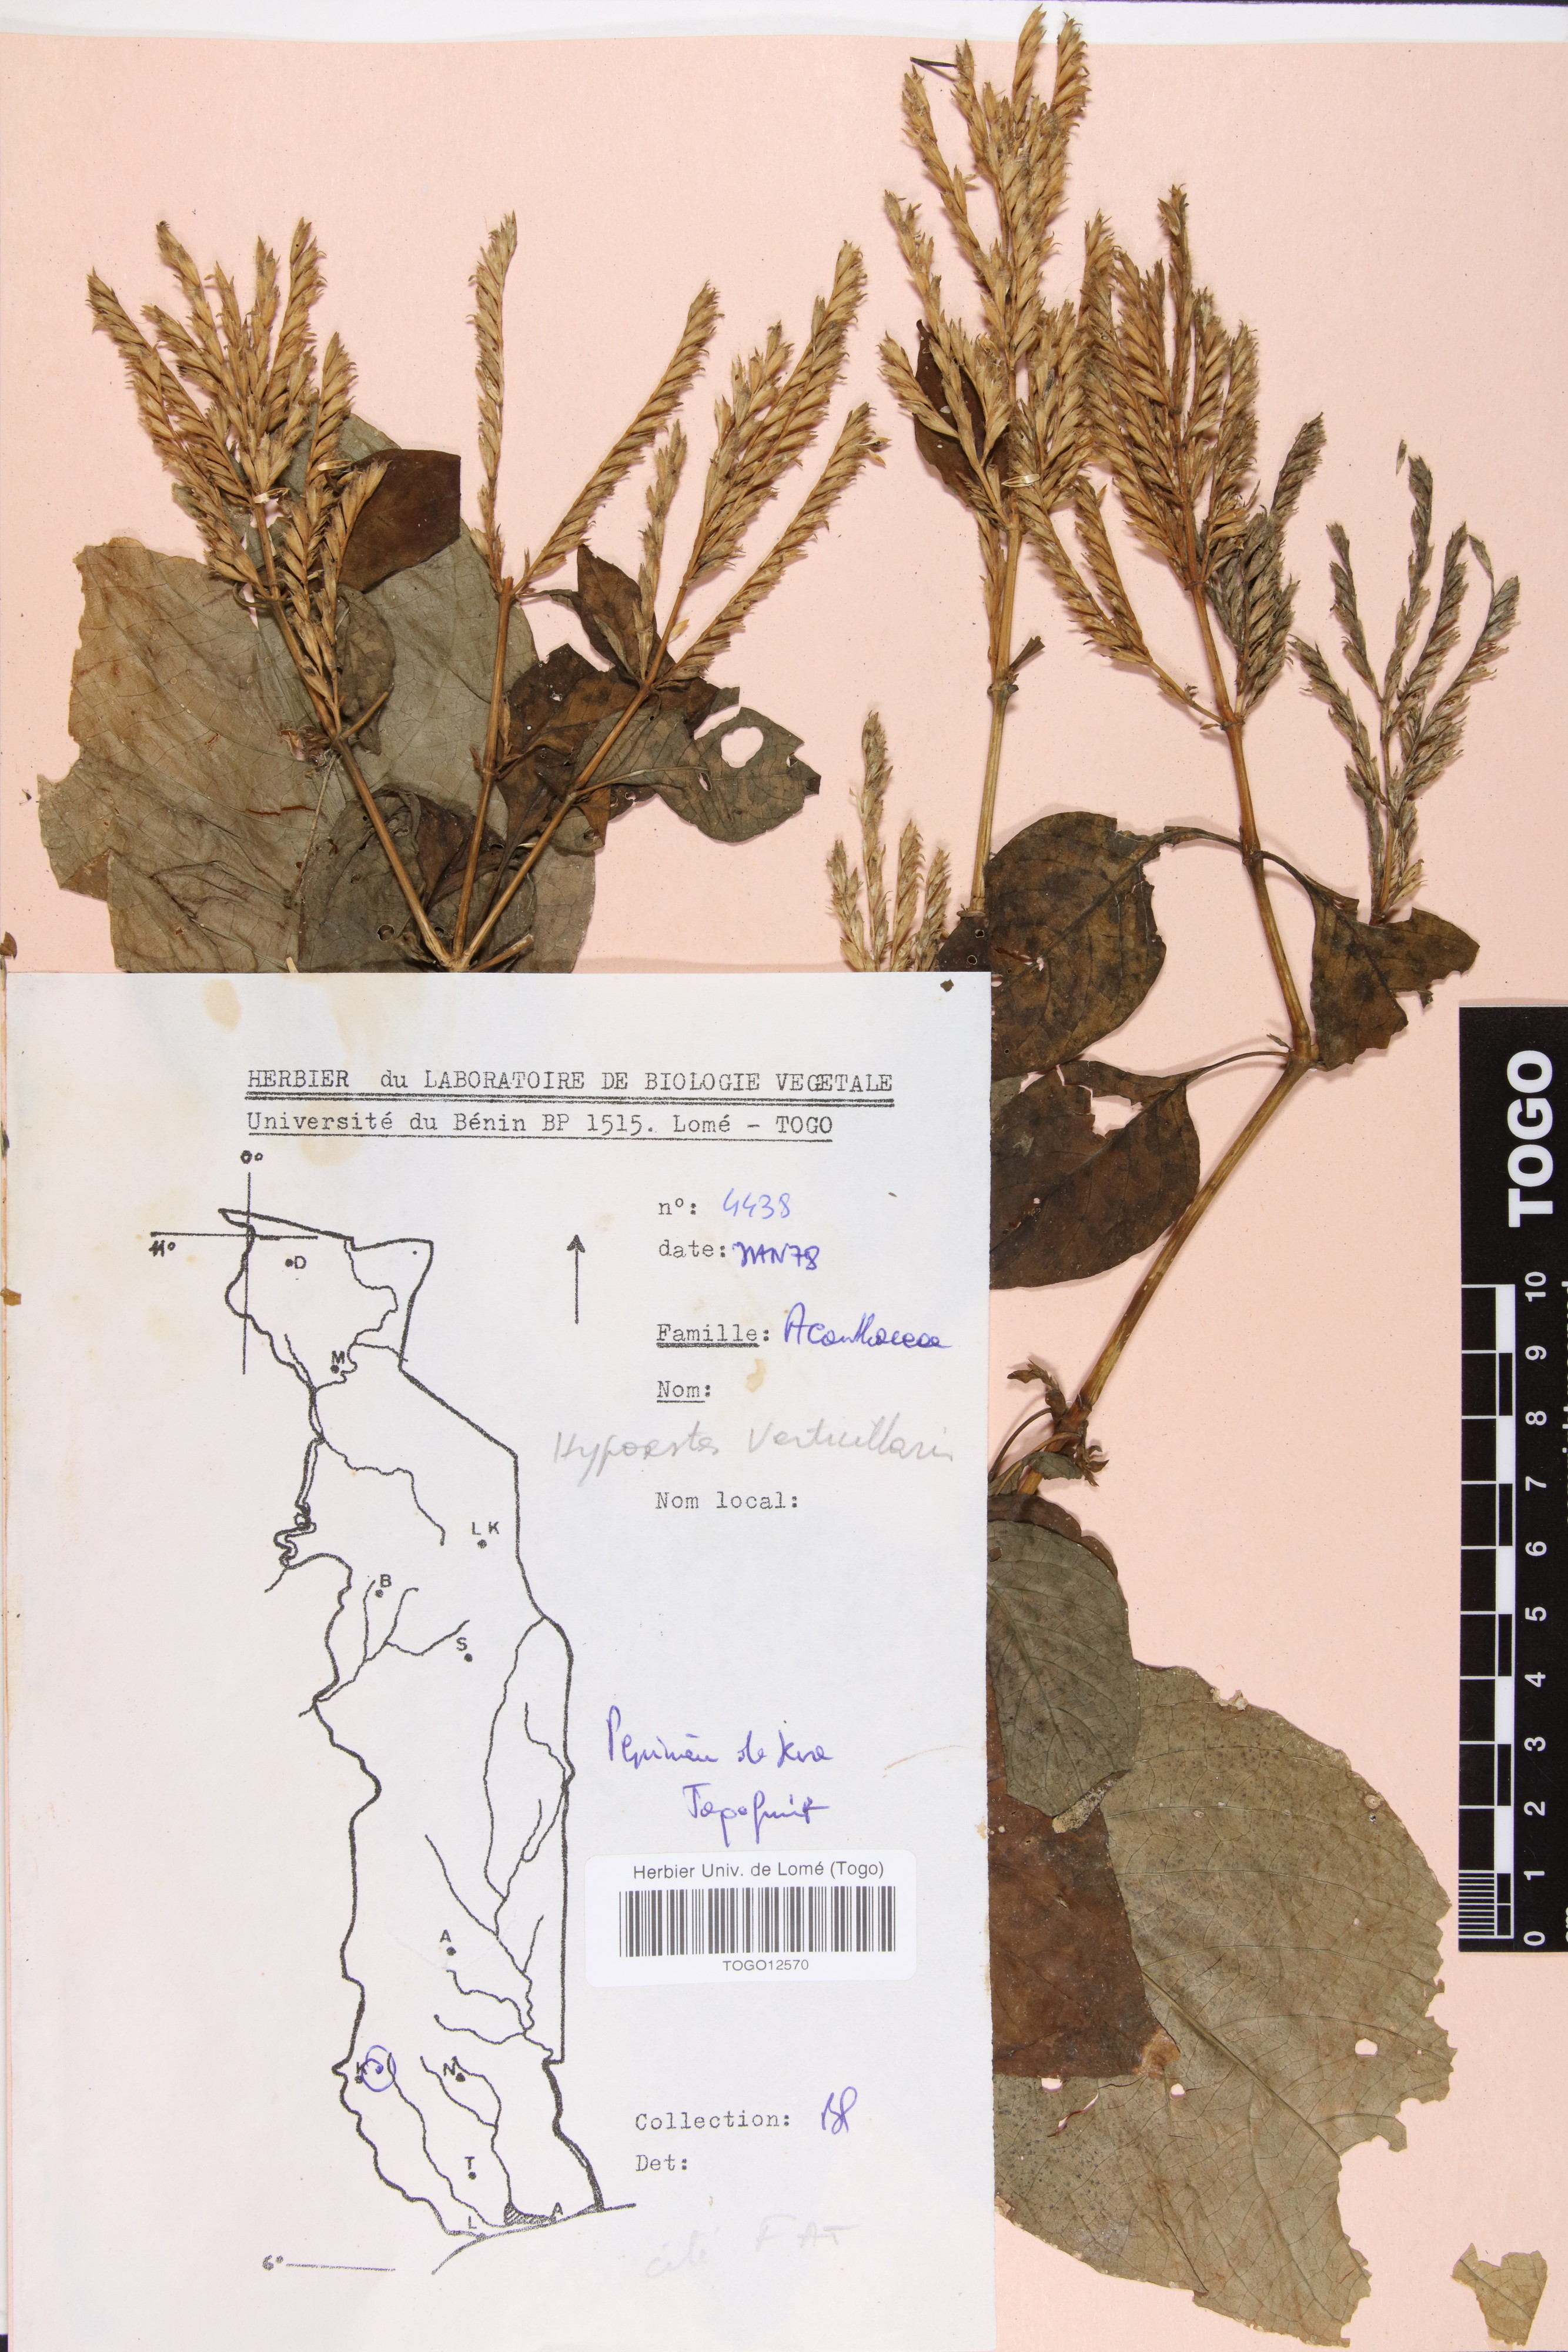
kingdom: Plantae
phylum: Tracheophyta
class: Magnoliopsida
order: Lamiales
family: Acanthaceae
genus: Hypoestes
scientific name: Hypoestes aristata
